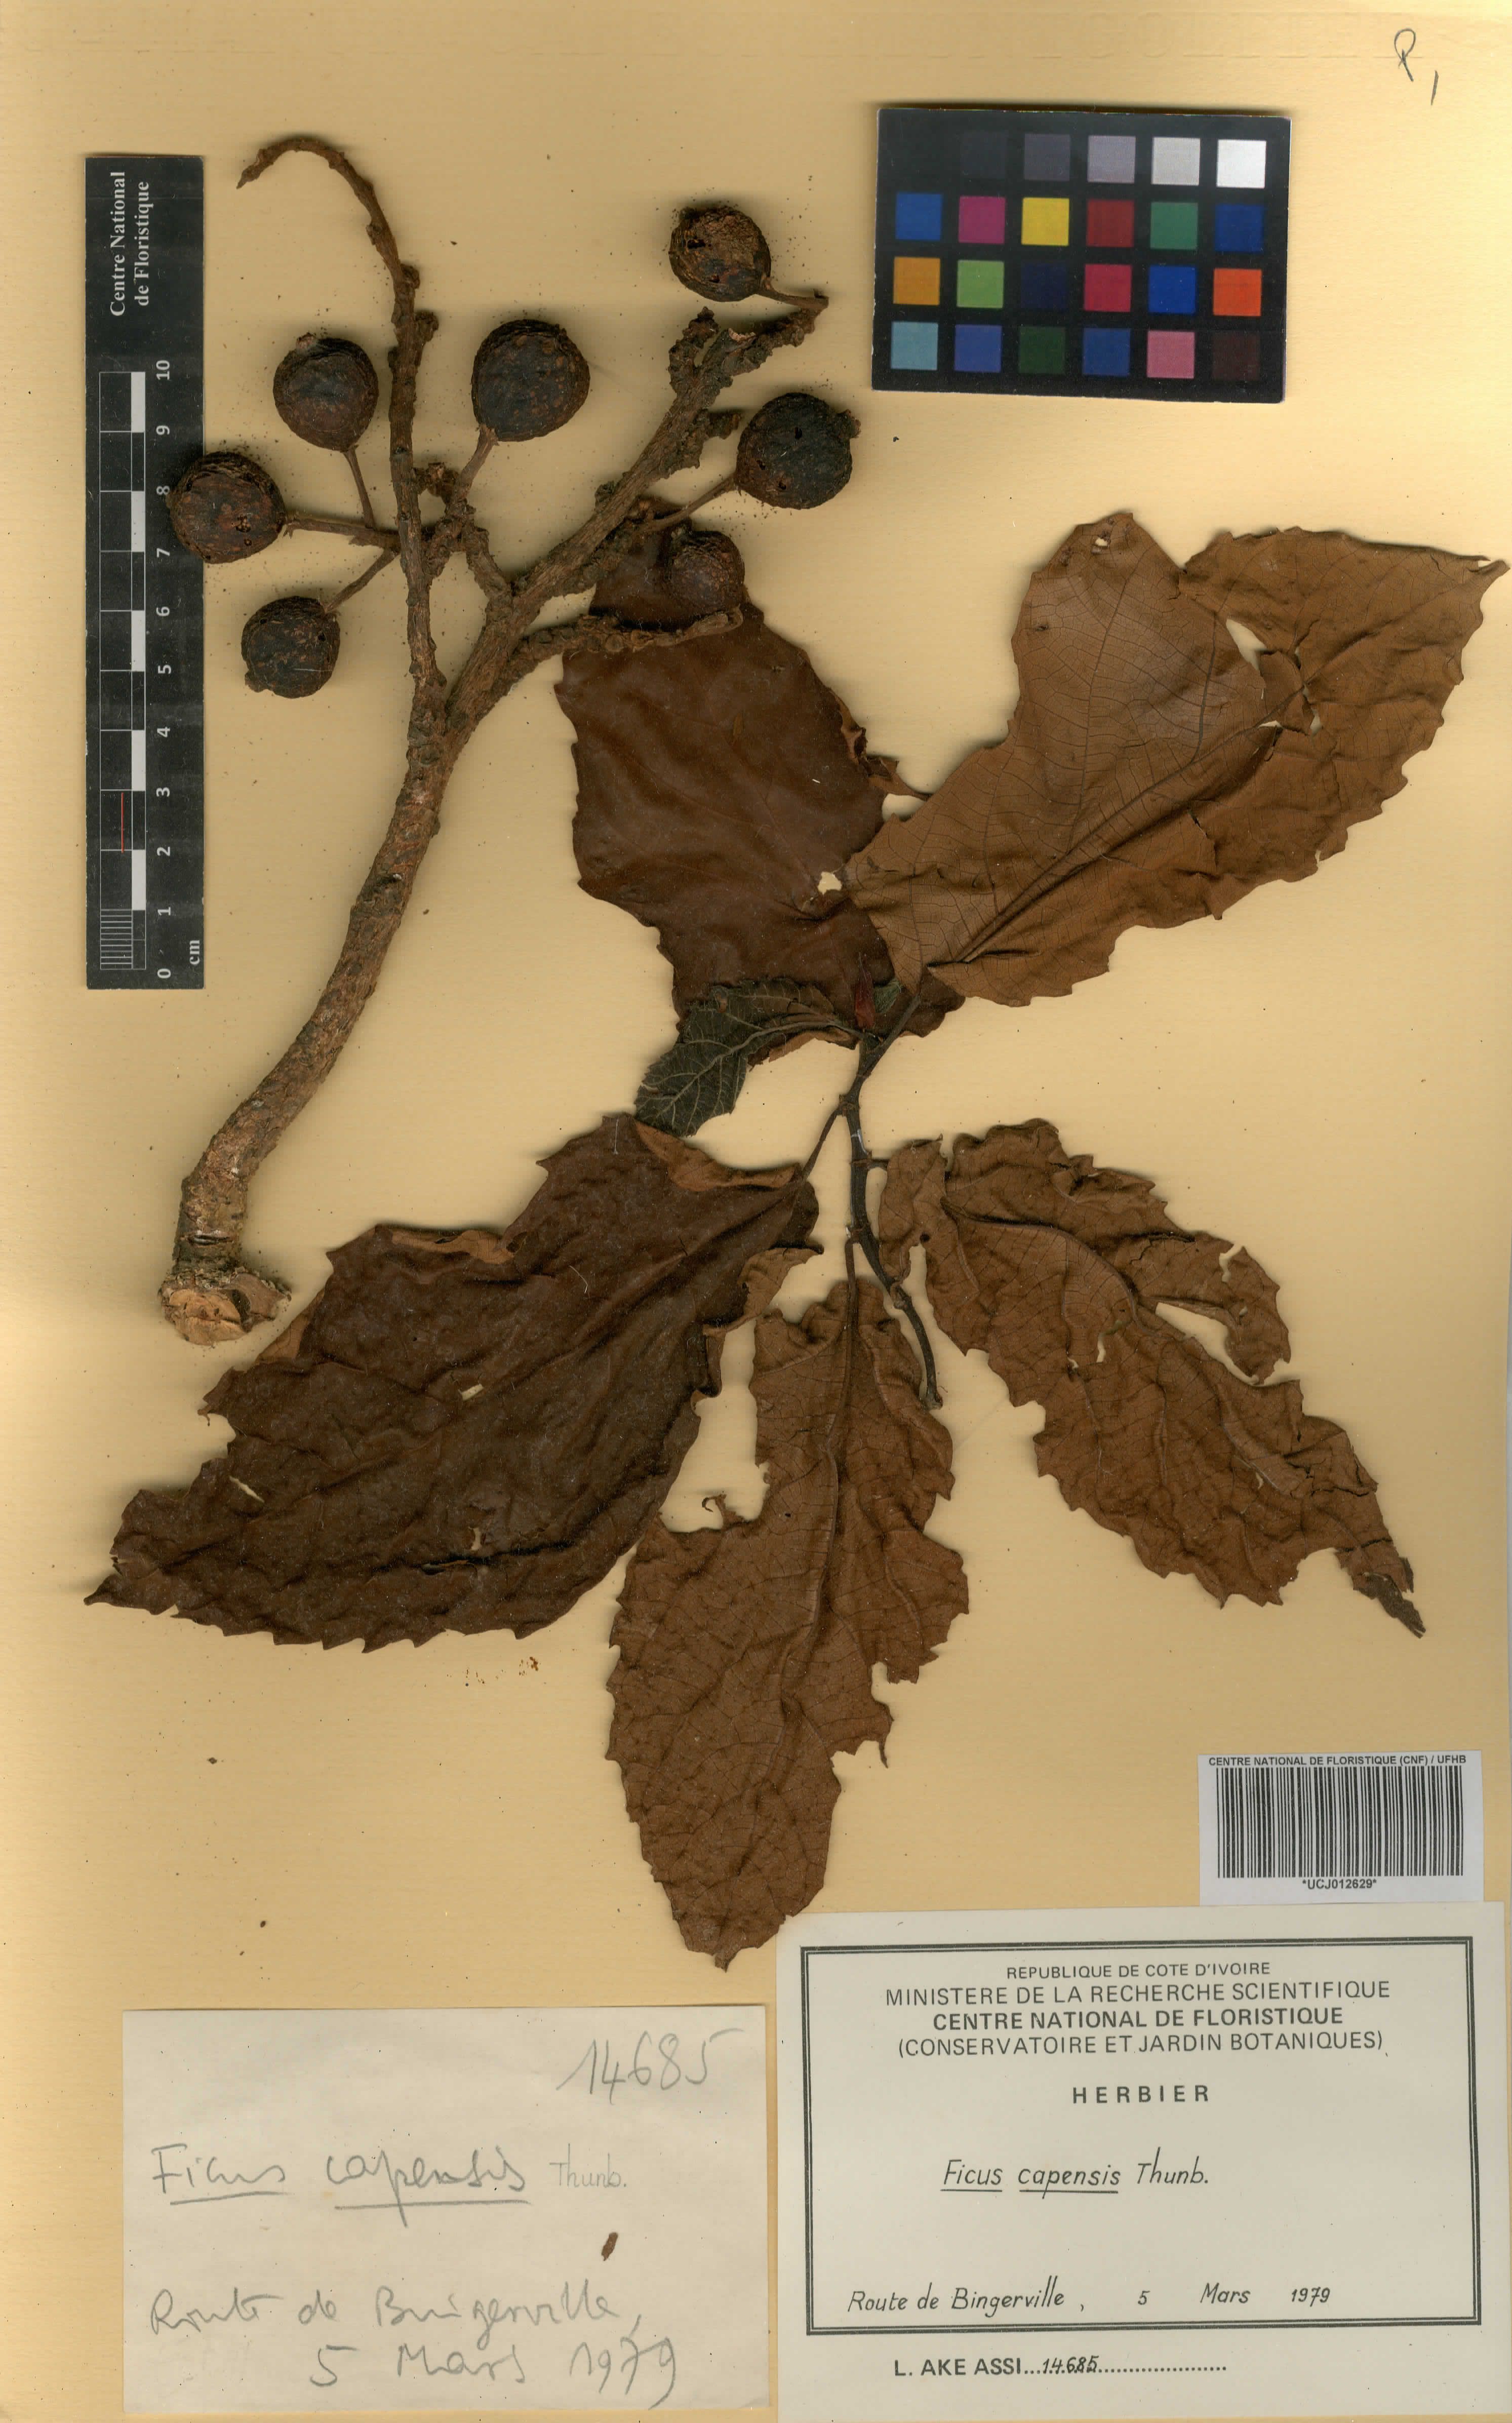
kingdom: Plantae
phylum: Tracheophyta
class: Magnoliopsida
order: Rosales
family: Moraceae
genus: Ficus
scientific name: Ficus sur
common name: Cape fig
